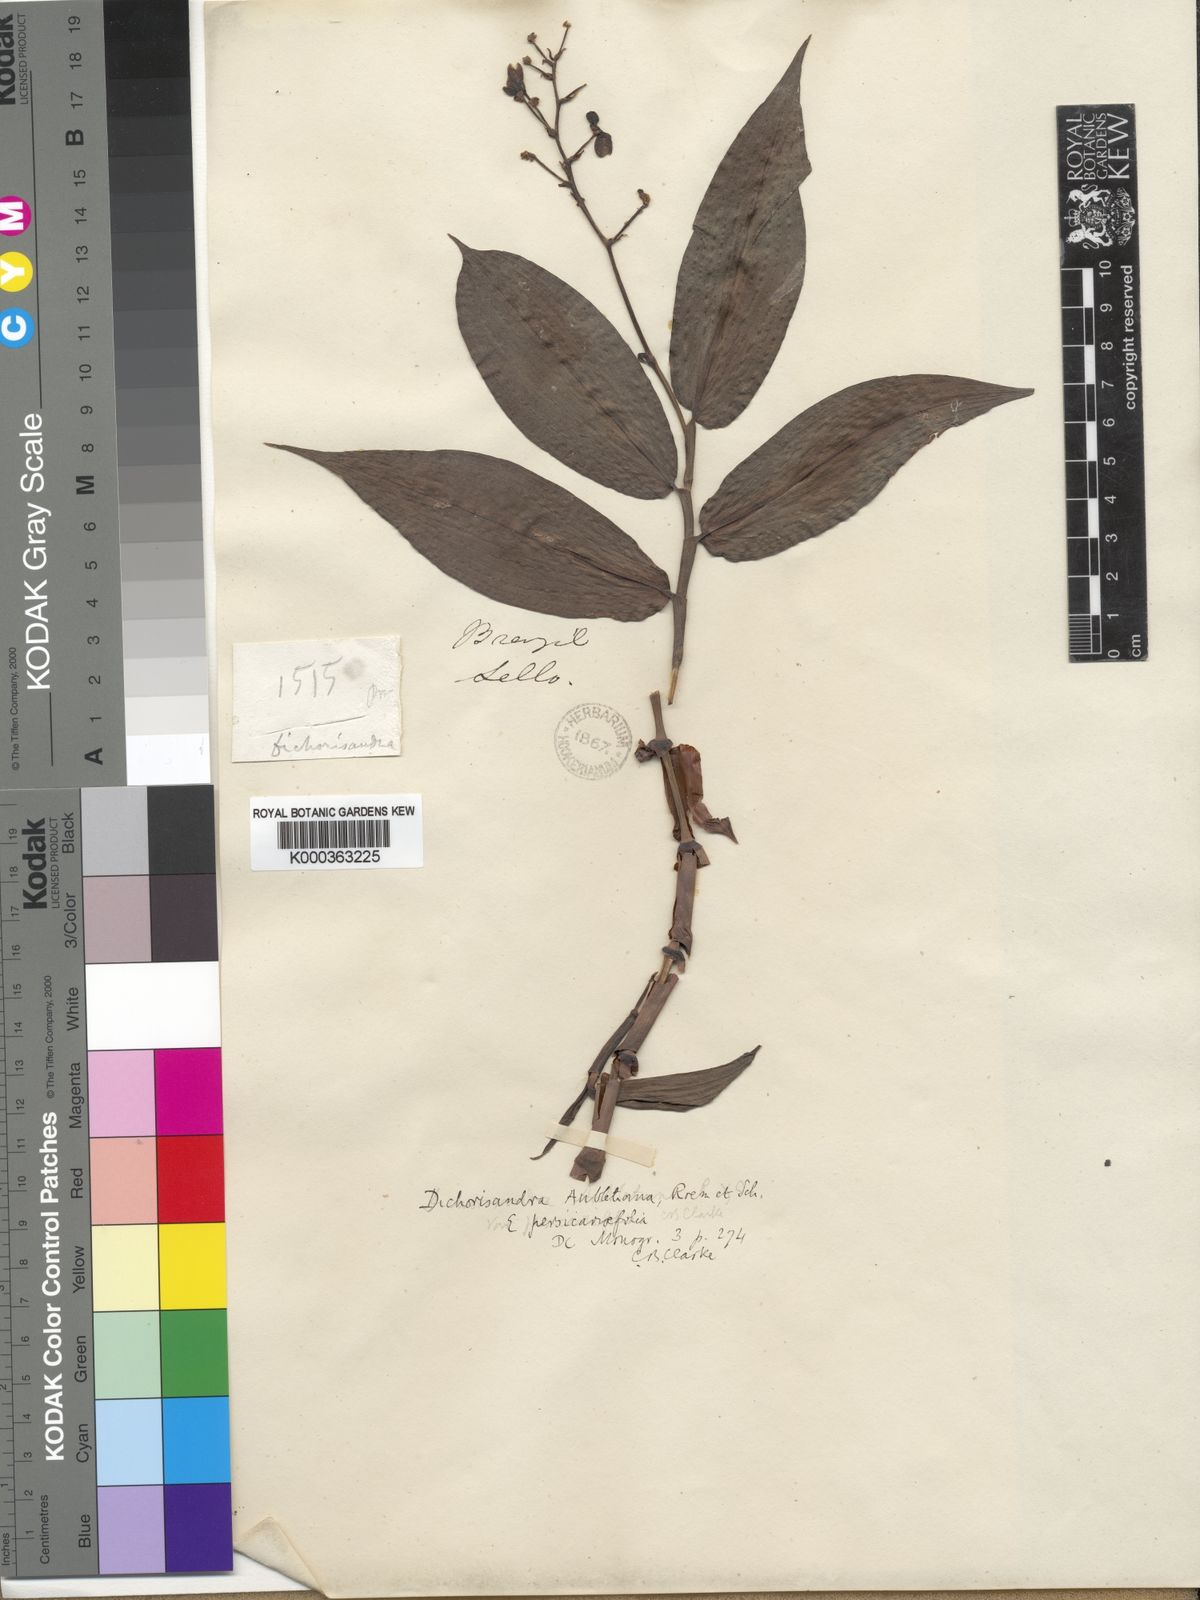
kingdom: Plantae
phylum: Tracheophyta
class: Liliopsida
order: Commelinales
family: Commelinaceae
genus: Dichorisandra
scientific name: Dichorisandra hexandra
